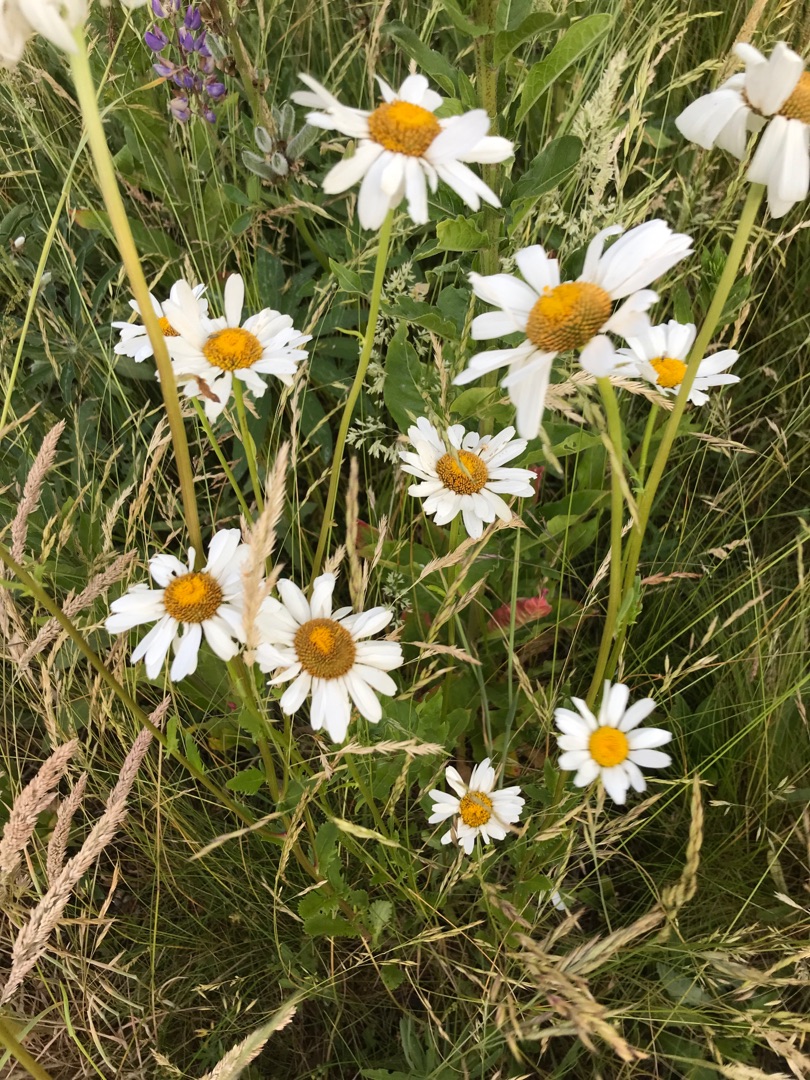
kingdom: Plantae
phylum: Tracheophyta
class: Magnoliopsida
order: Asterales
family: Asteraceae
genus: Leucanthemum
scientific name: Leucanthemum vulgare
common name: Hvid okseøje
